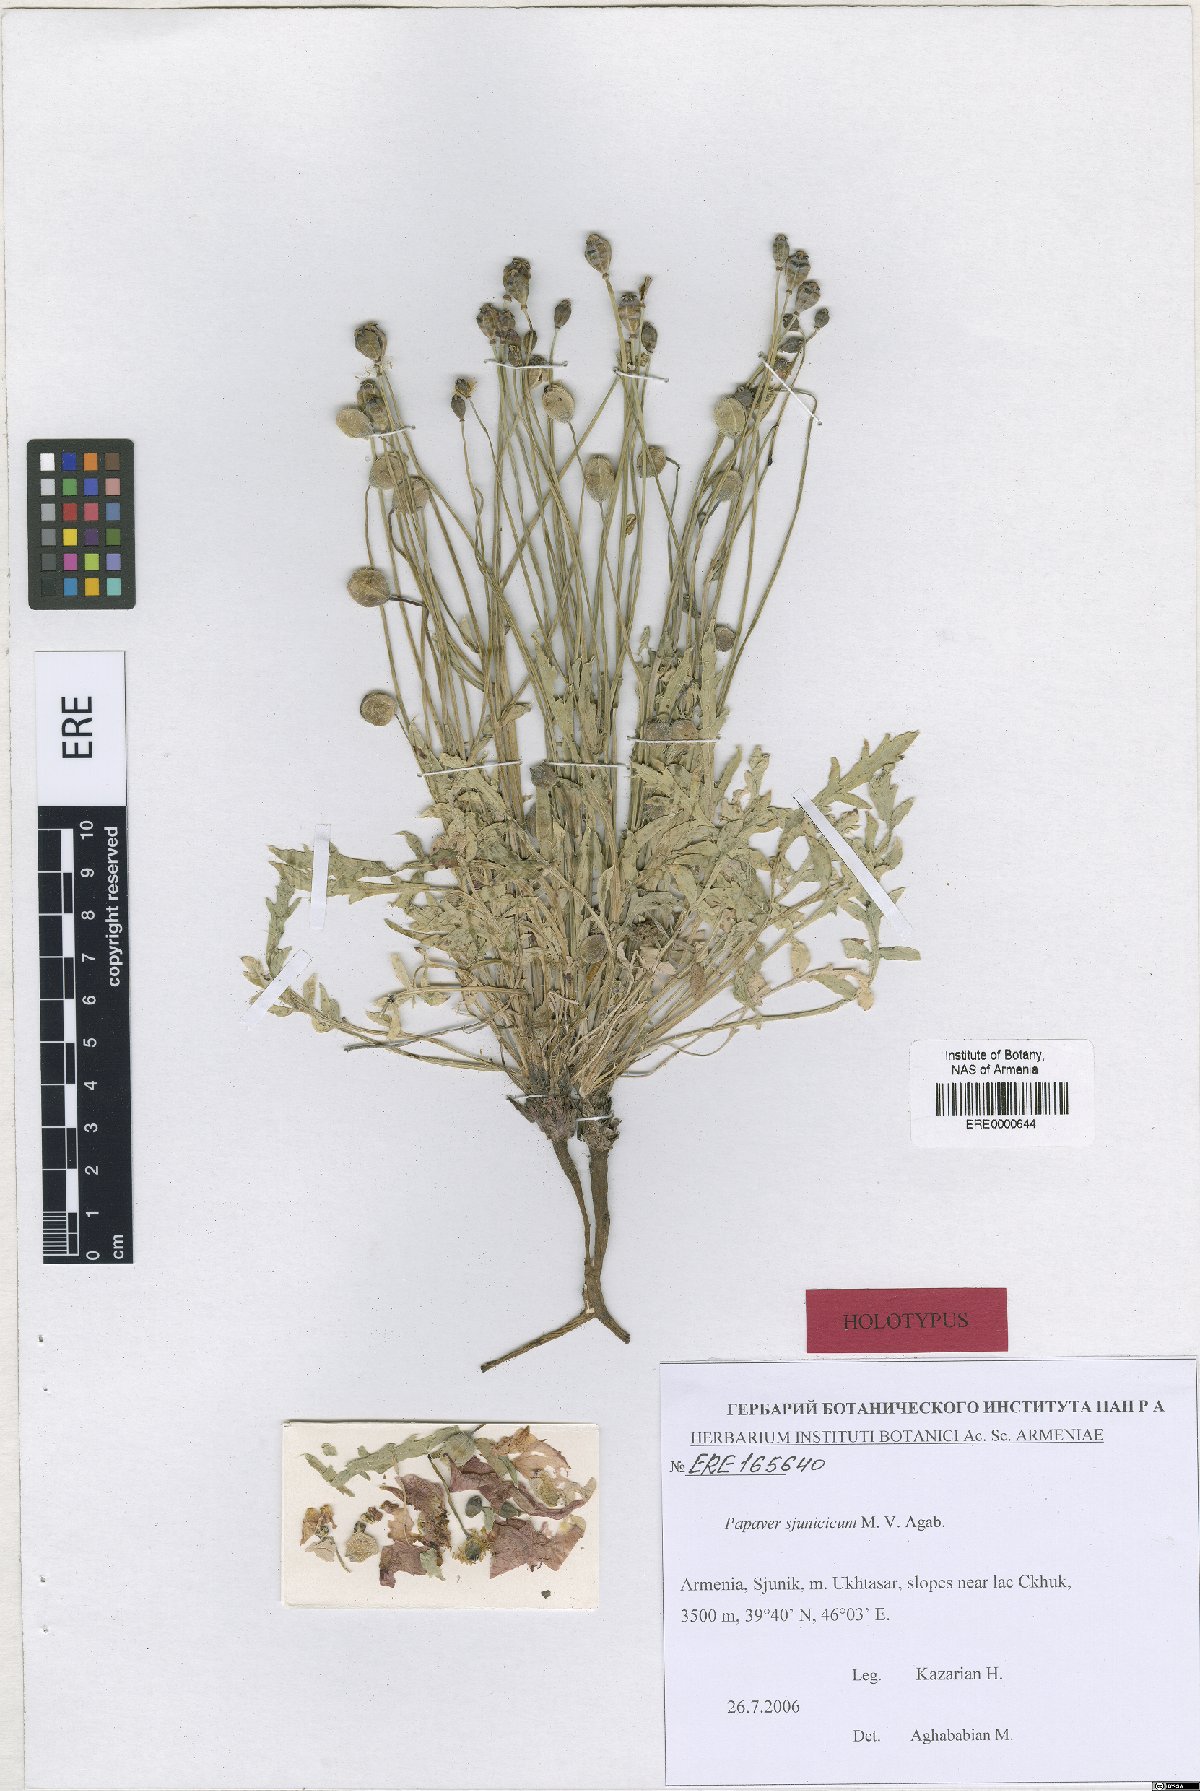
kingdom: Plantae
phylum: Tracheophyta
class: Magnoliopsida
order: Ranunculales
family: Papaveraceae
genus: Papaver
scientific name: Papaver armeniacum
